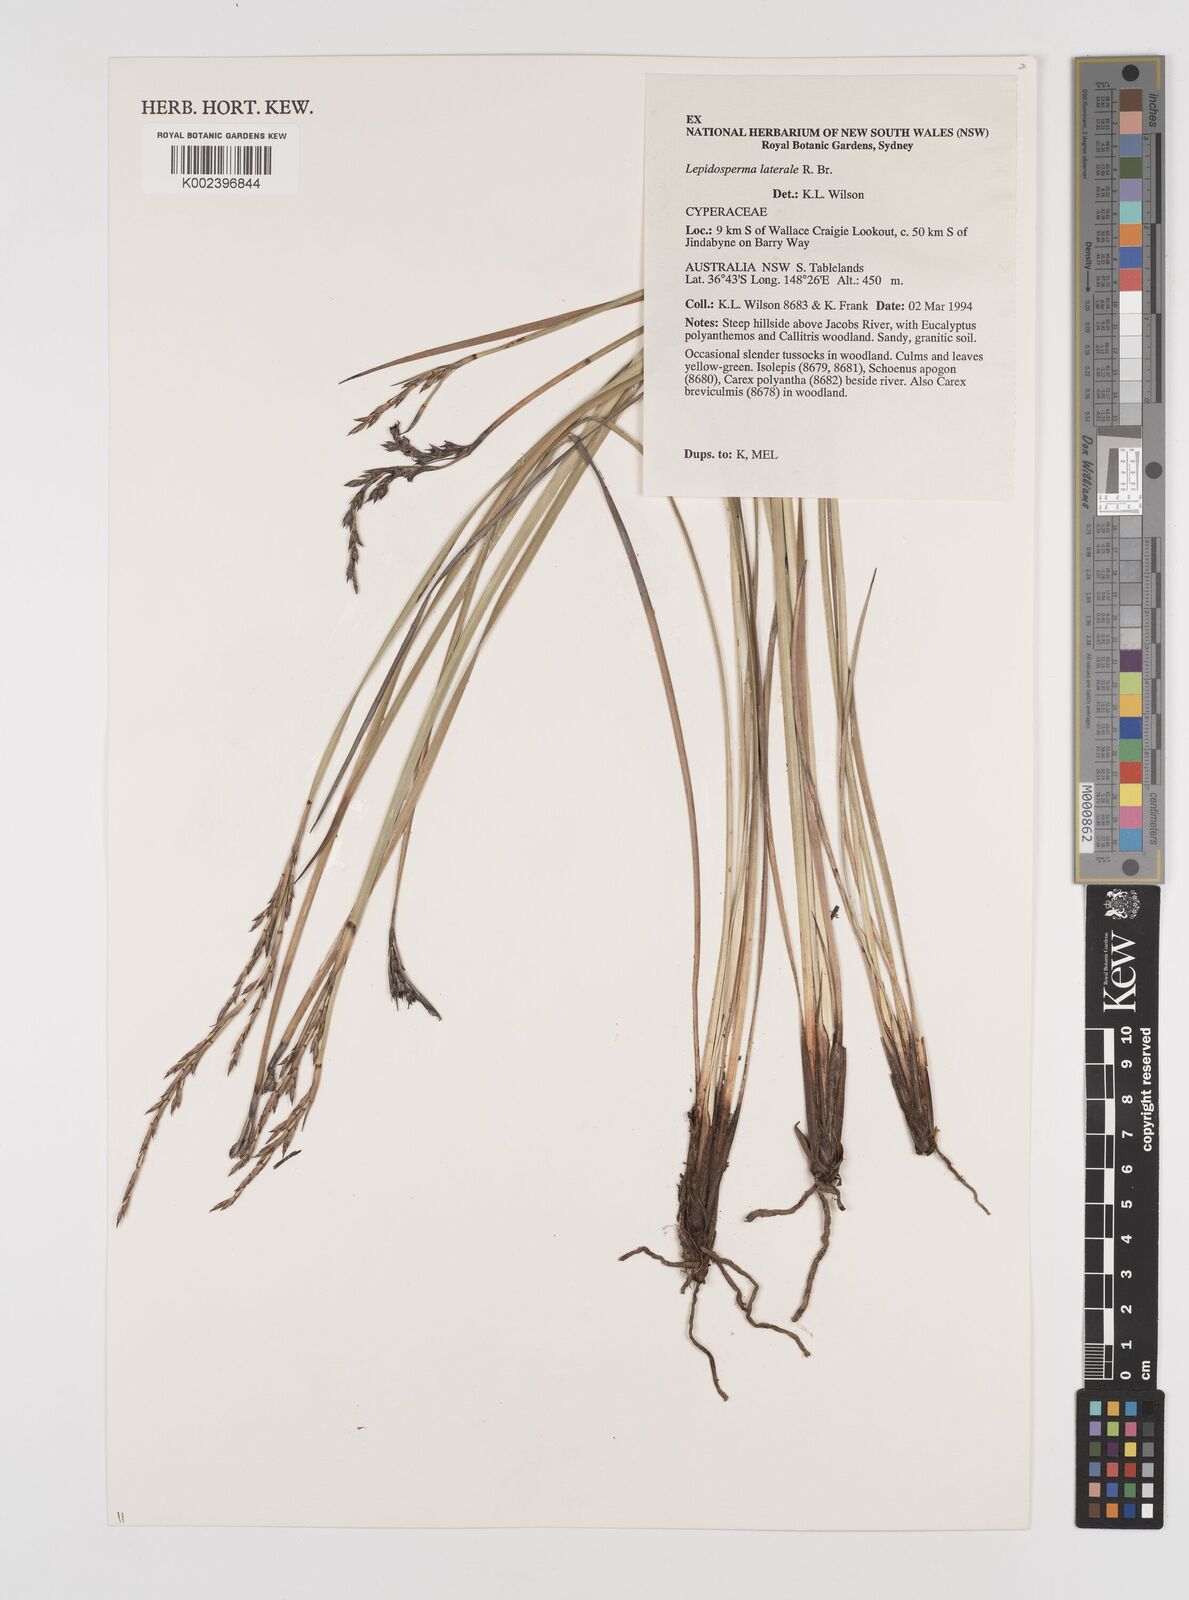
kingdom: Plantae
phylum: Tracheophyta
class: Liliopsida
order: Poales
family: Cyperaceae
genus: Lepidosperma
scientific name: Lepidosperma laterale
